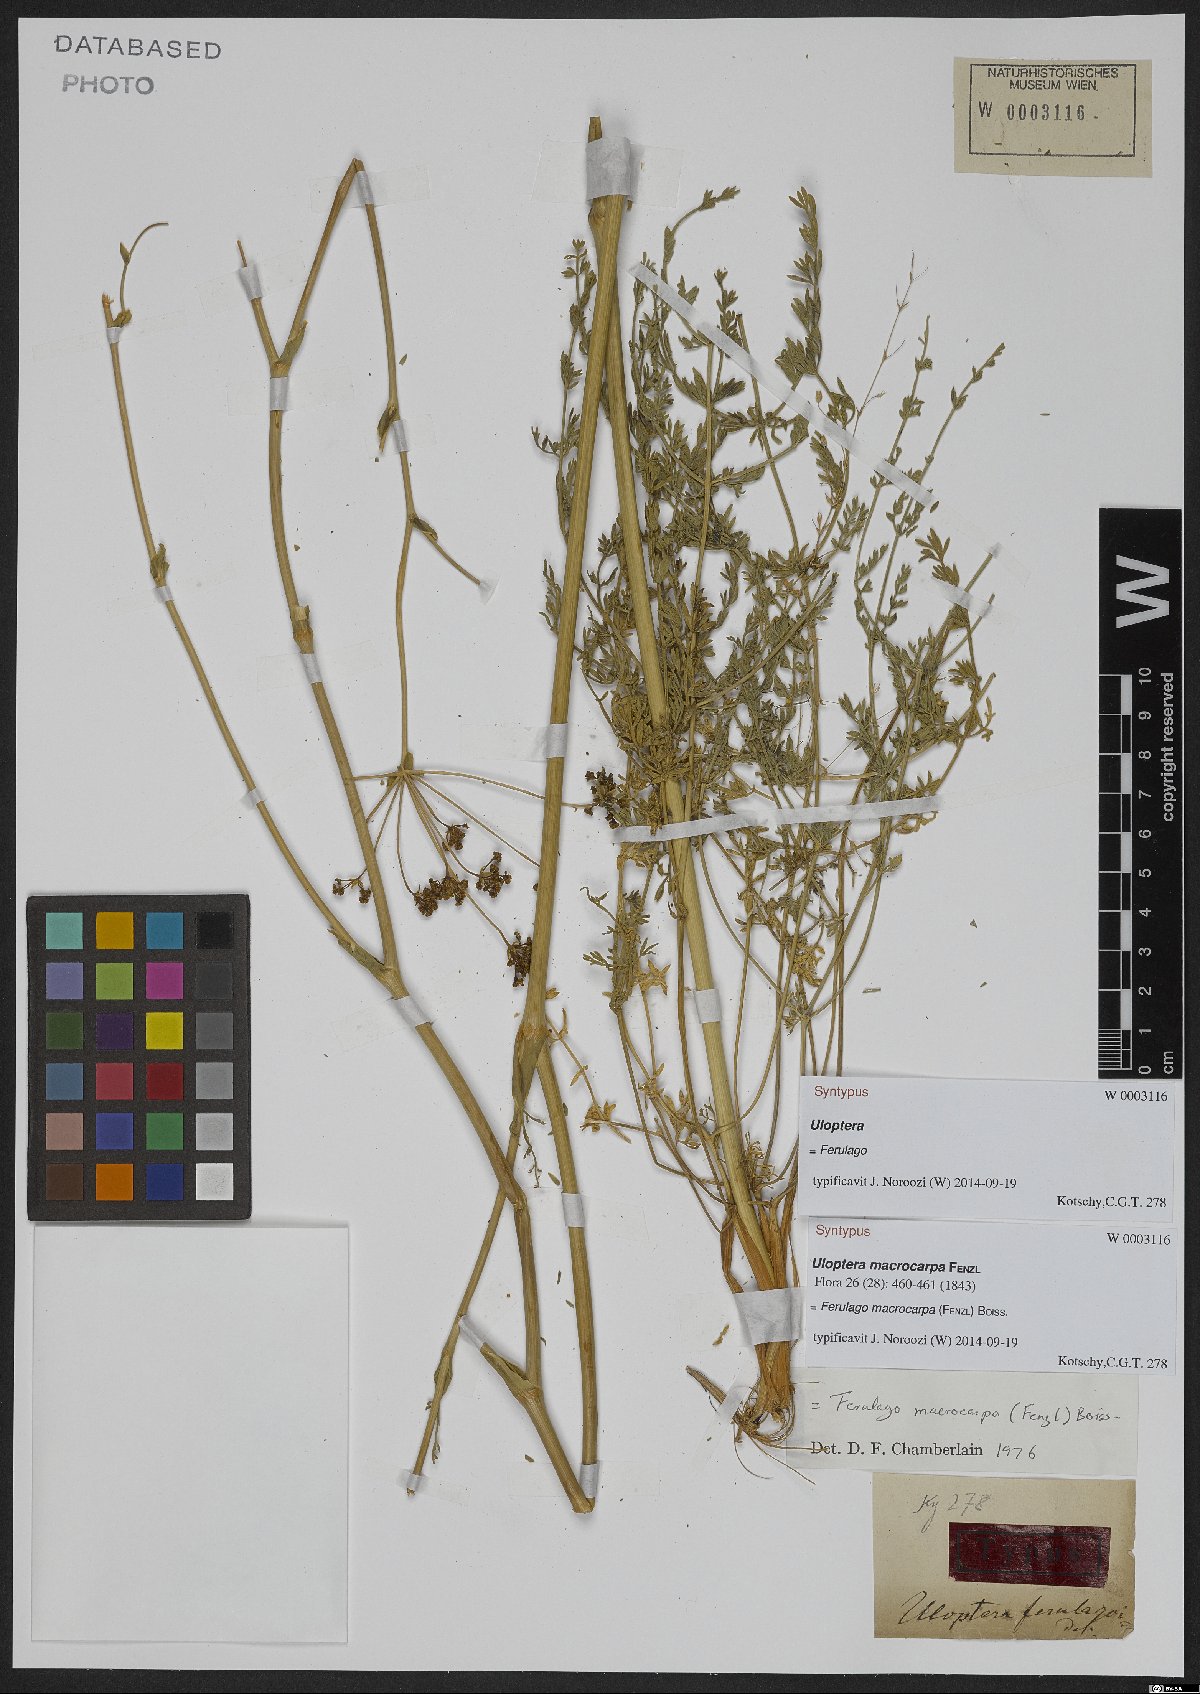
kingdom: Plantae
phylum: Tracheophyta
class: Magnoliopsida
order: Apiales
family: Apiaceae
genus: Ferulago
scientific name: Ferulago macrocarpa
